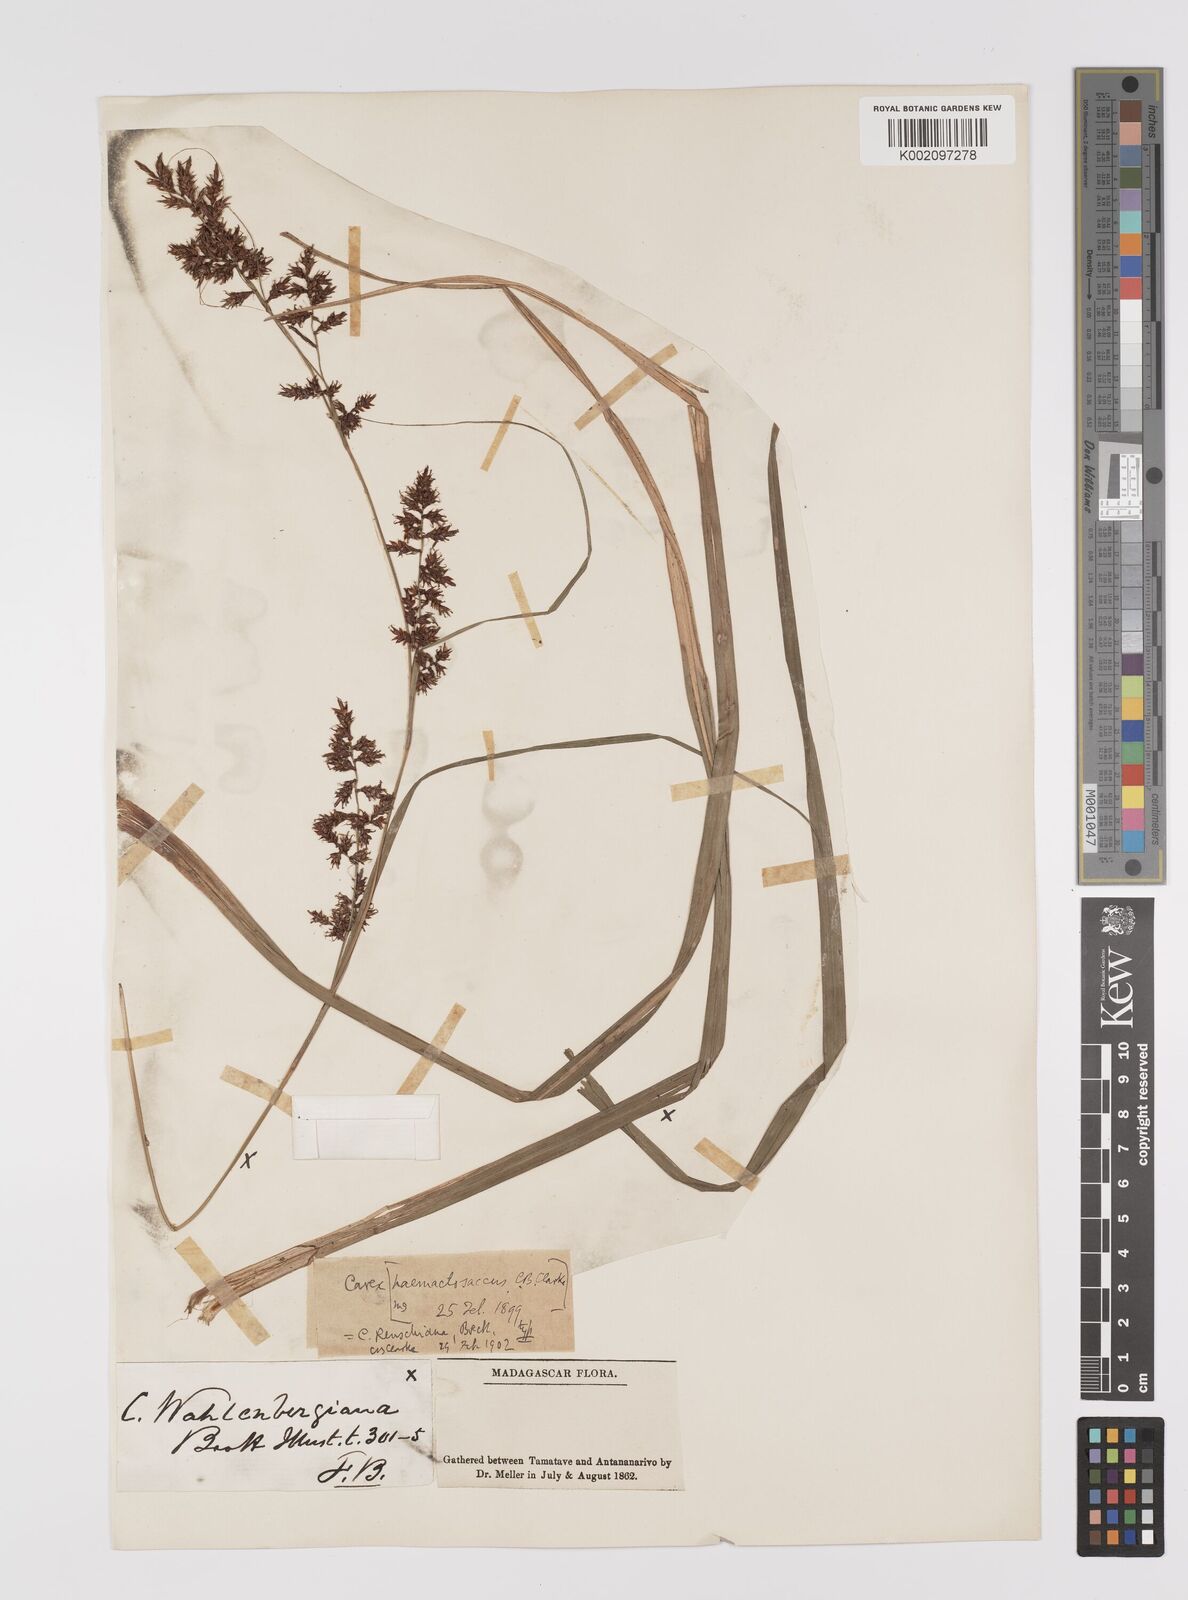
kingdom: Plantae
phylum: Tracheophyta
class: Liliopsida
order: Poales
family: Cyperaceae
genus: Carex
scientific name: Carex renschiana
